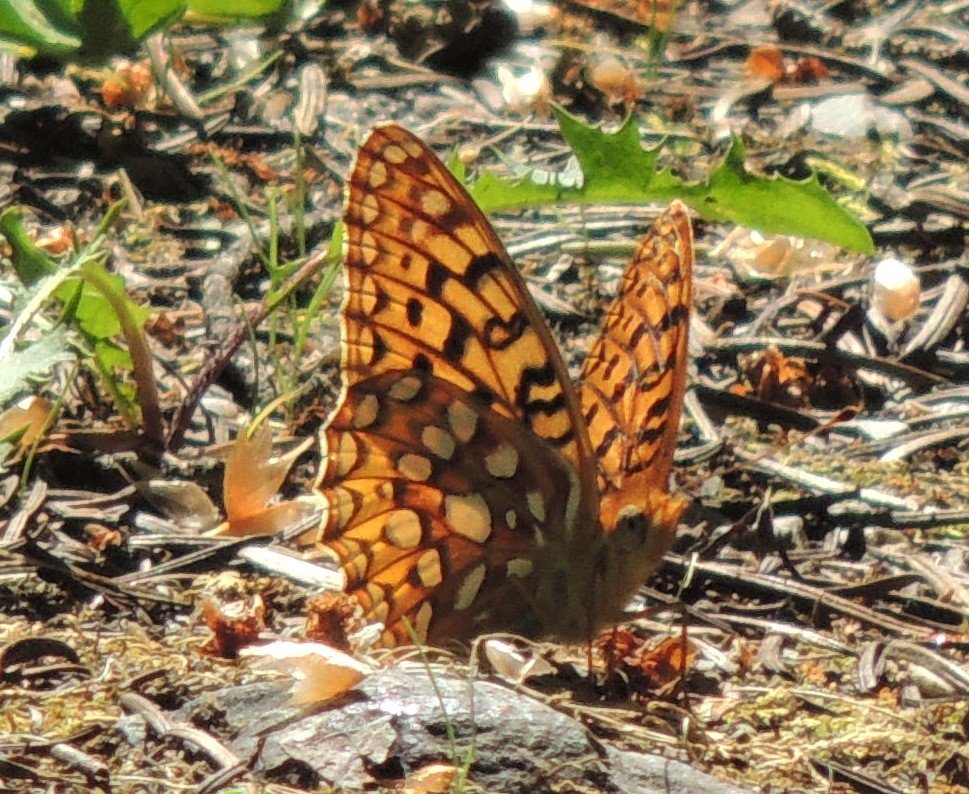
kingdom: Animalia
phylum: Arthropoda
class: Insecta
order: Lepidoptera
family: Nymphalidae
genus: Speyeria
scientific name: Speyeria zerene
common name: Zerene Fritillary
